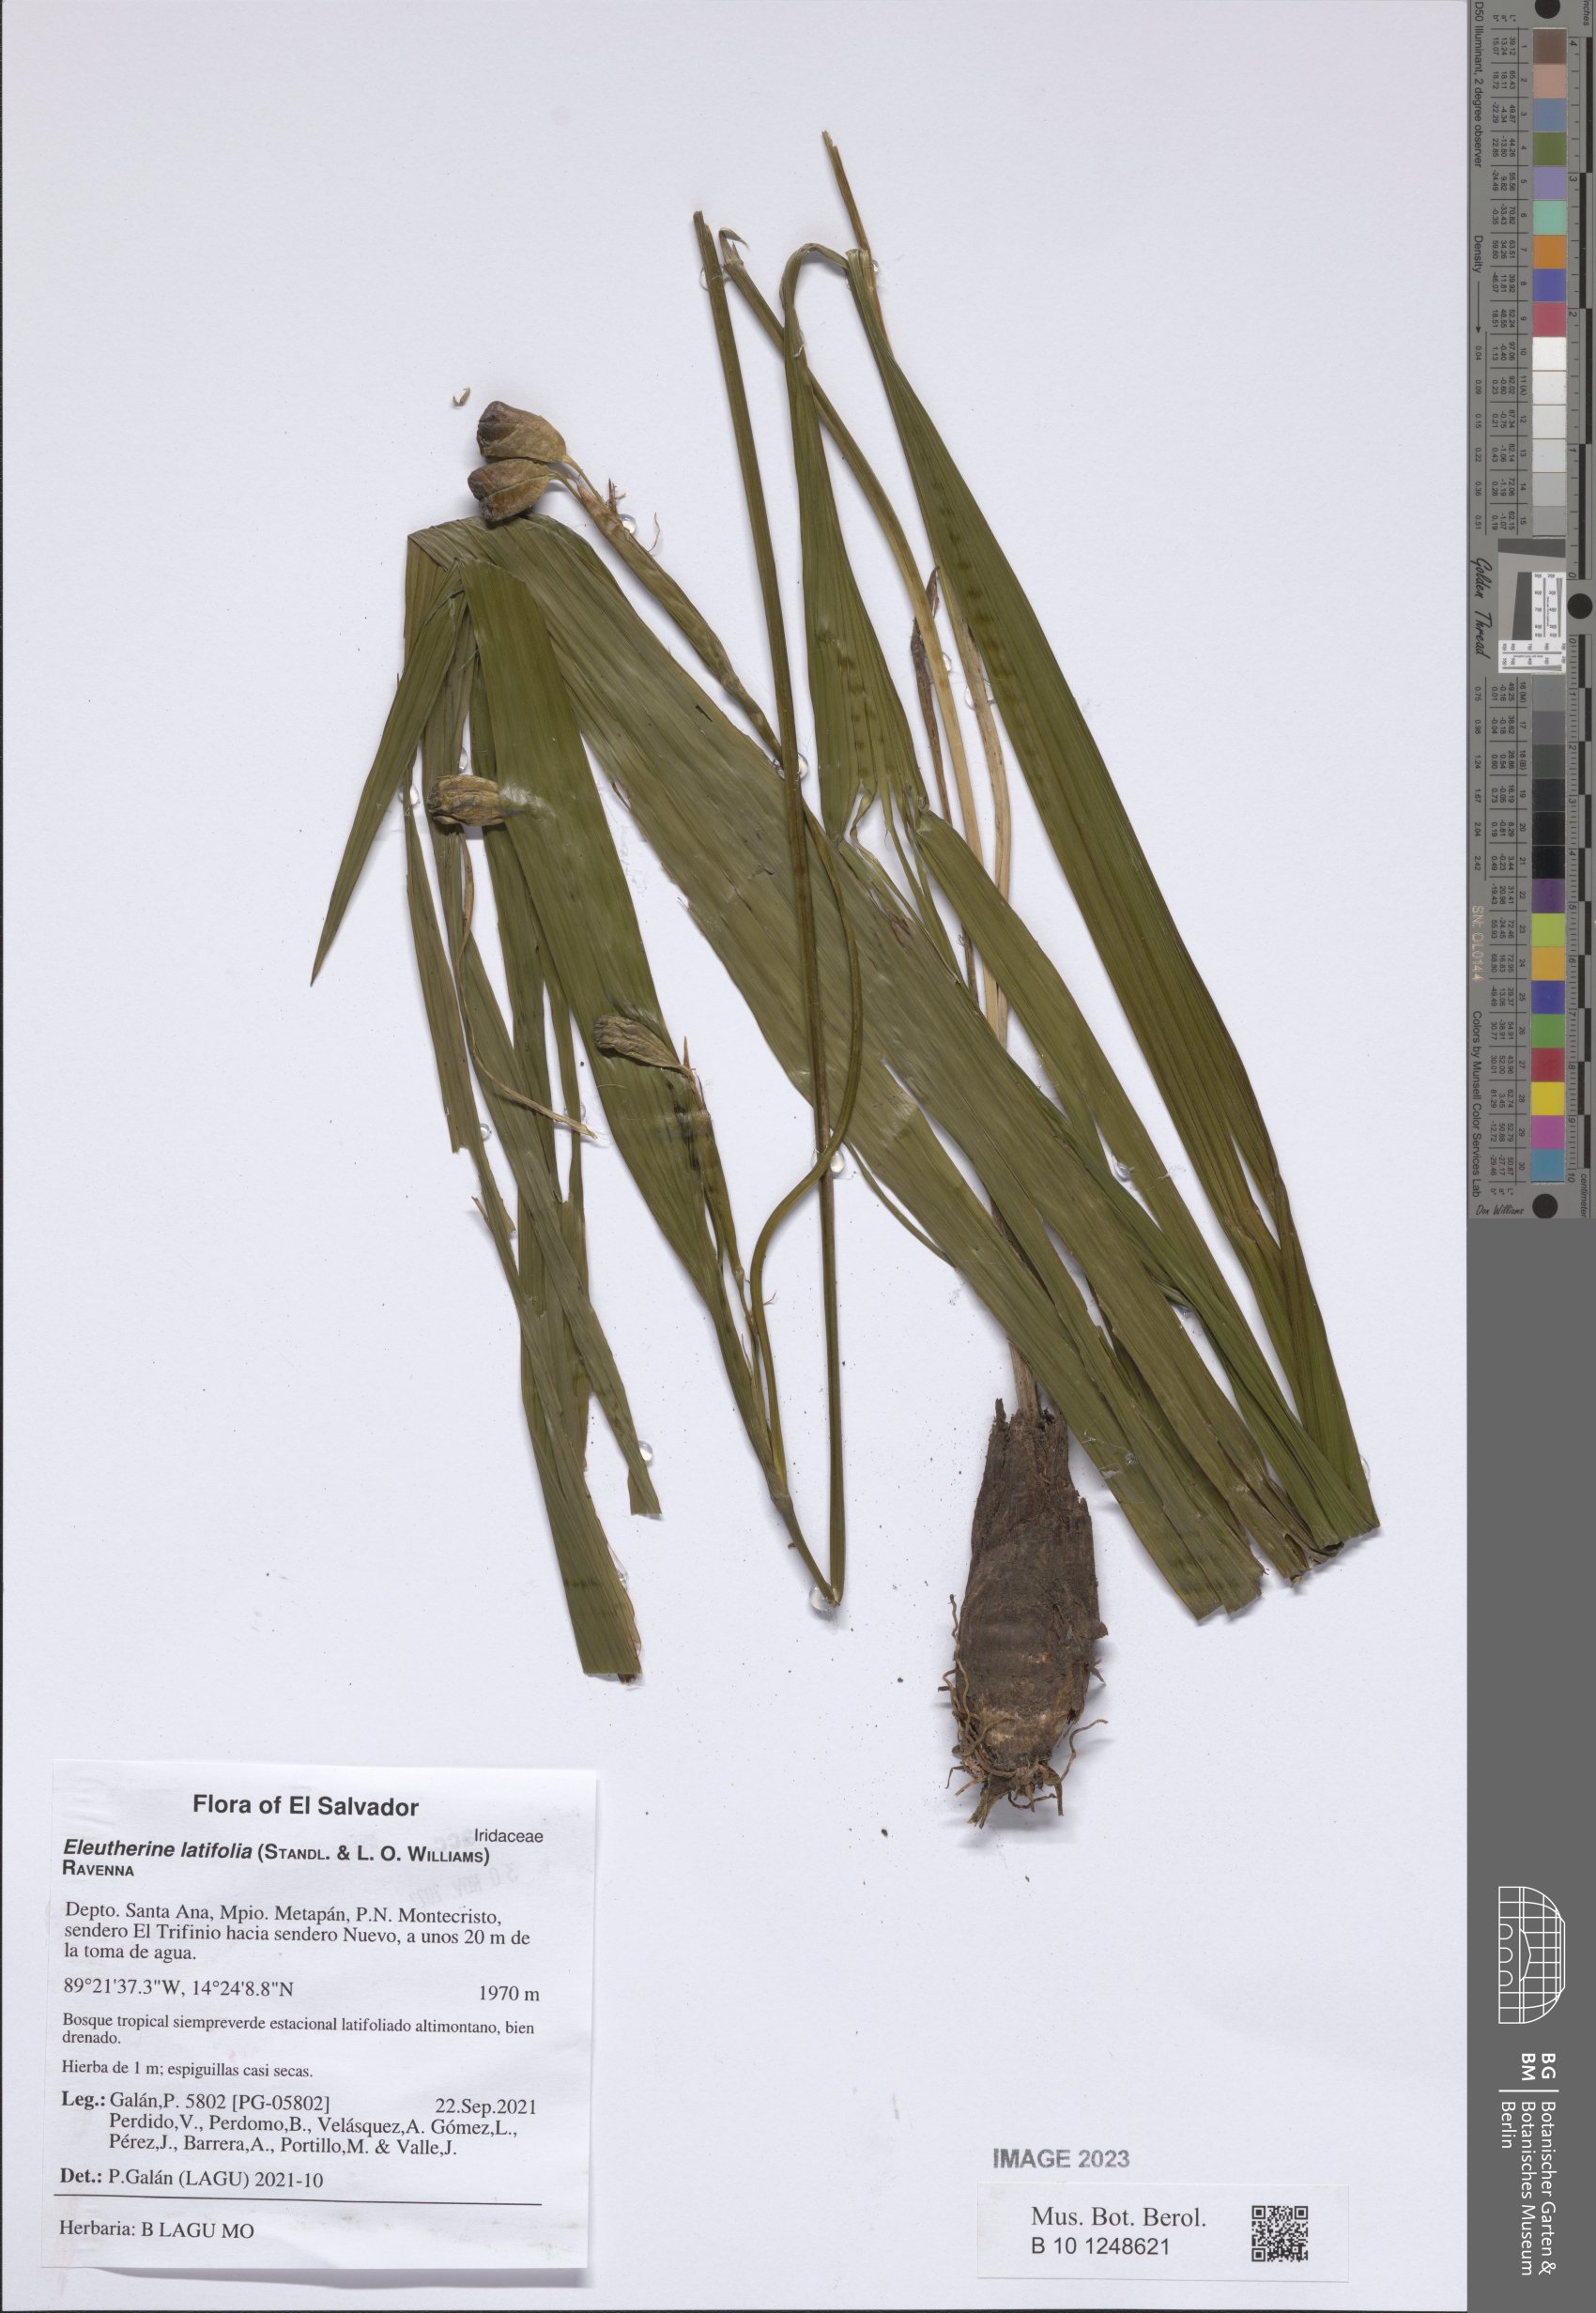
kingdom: Plantae
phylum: Tracheophyta
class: Liliopsida
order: Asparagales
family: Iridaceae
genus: Eleutherine
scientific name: Eleutherine latifolia
